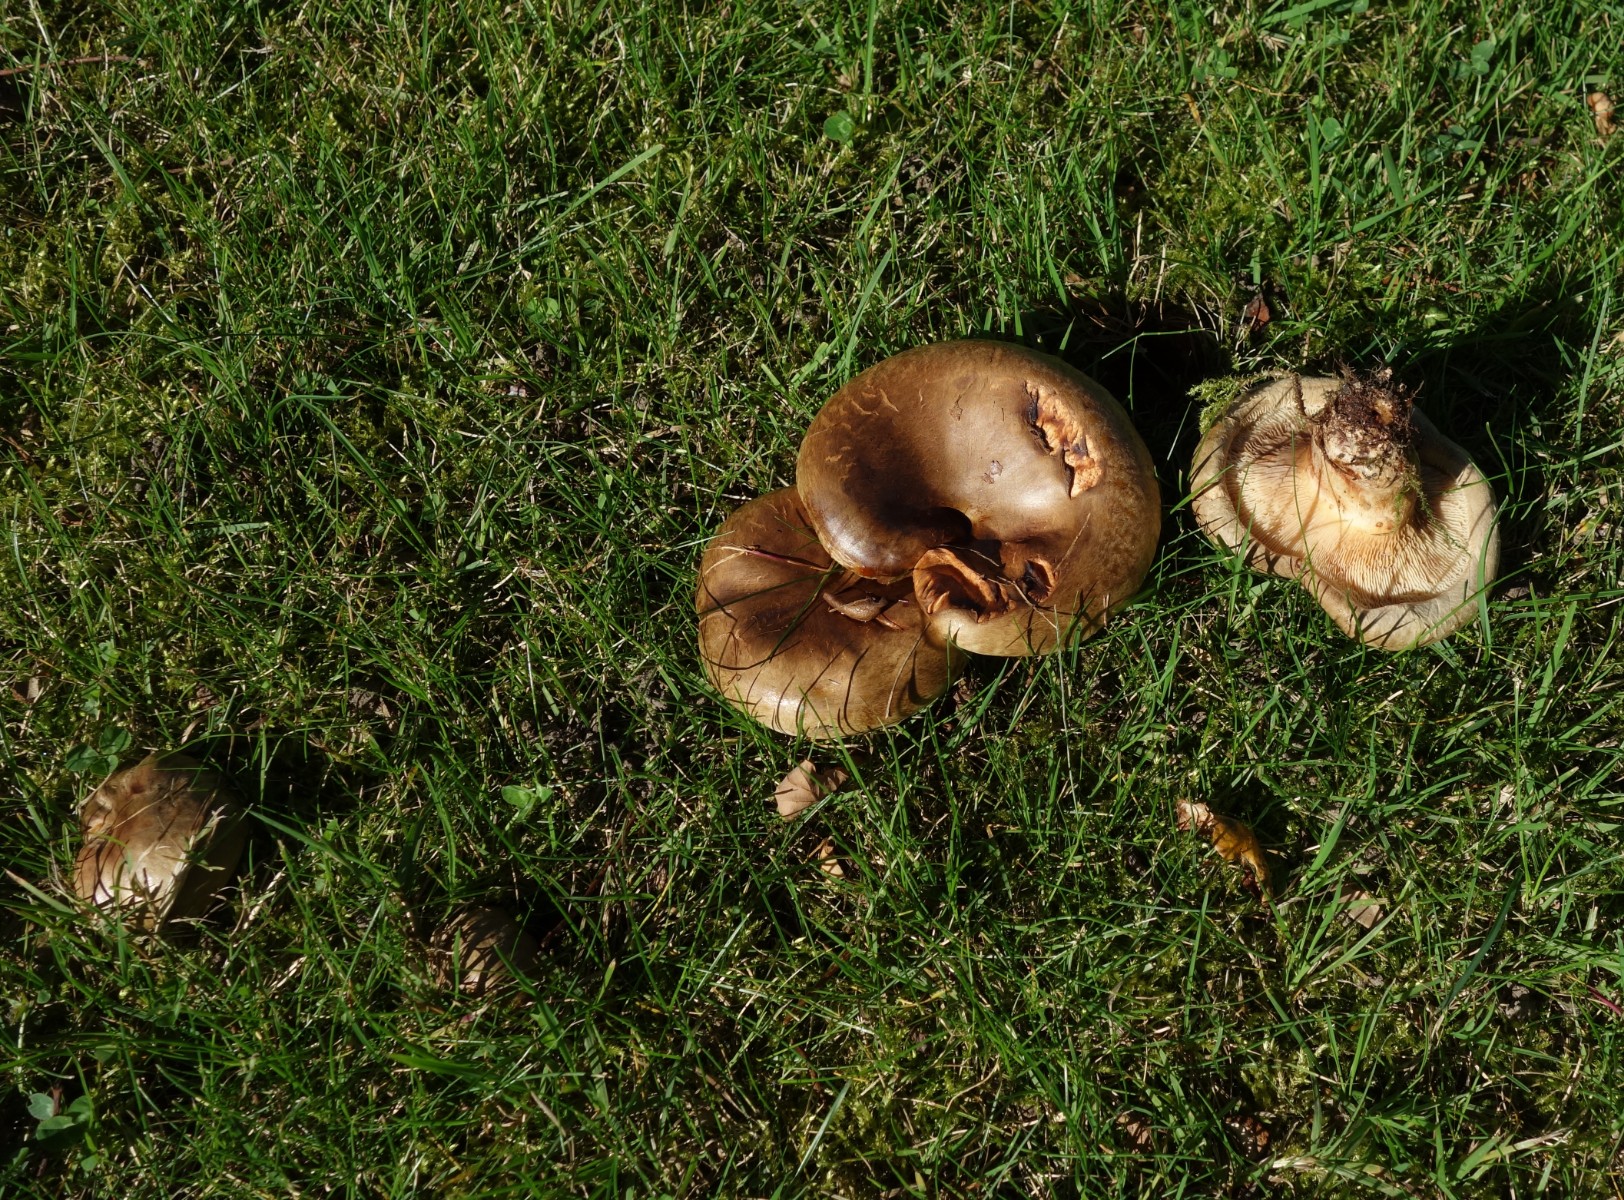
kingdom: Fungi
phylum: Basidiomycota
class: Agaricomycetes
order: Boletales
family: Paxillaceae
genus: Paxillus
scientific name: Paxillus
